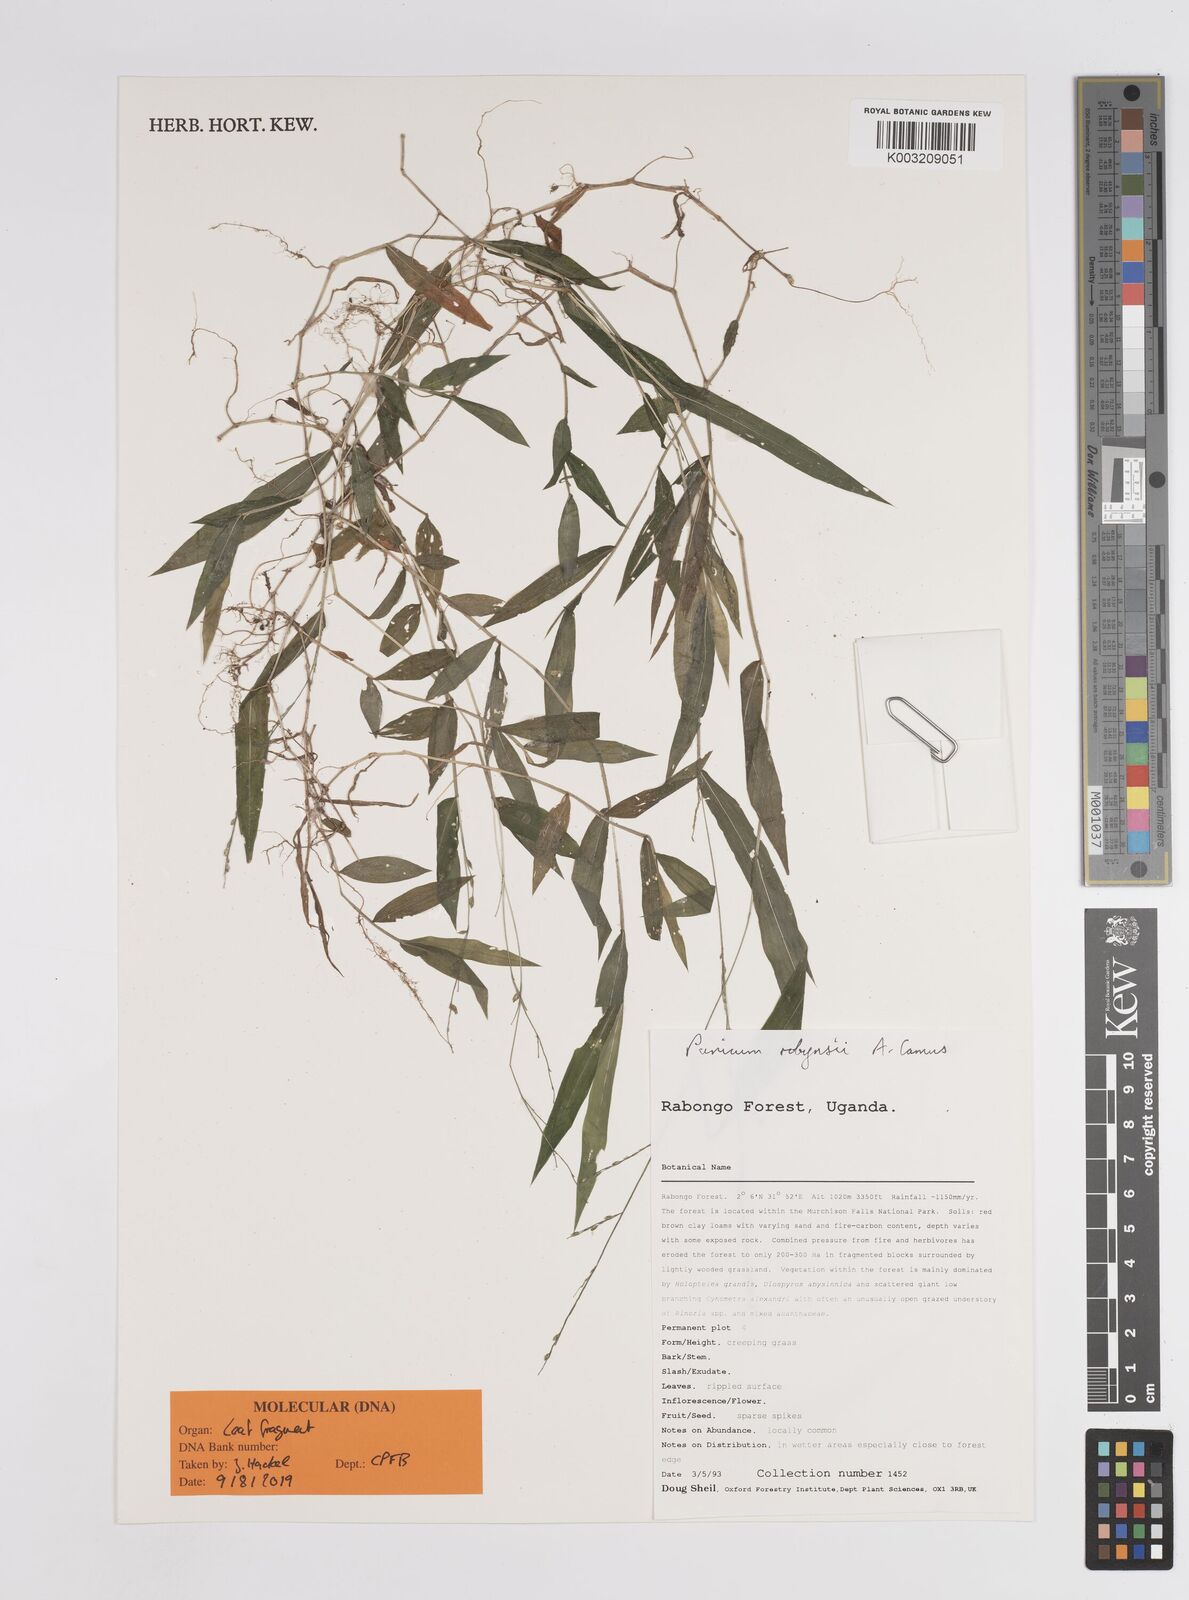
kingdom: Plantae
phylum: Tracheophyta
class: Liliopsida
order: Poales
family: Poaceae
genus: Panicum
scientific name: Panicum robynsii
